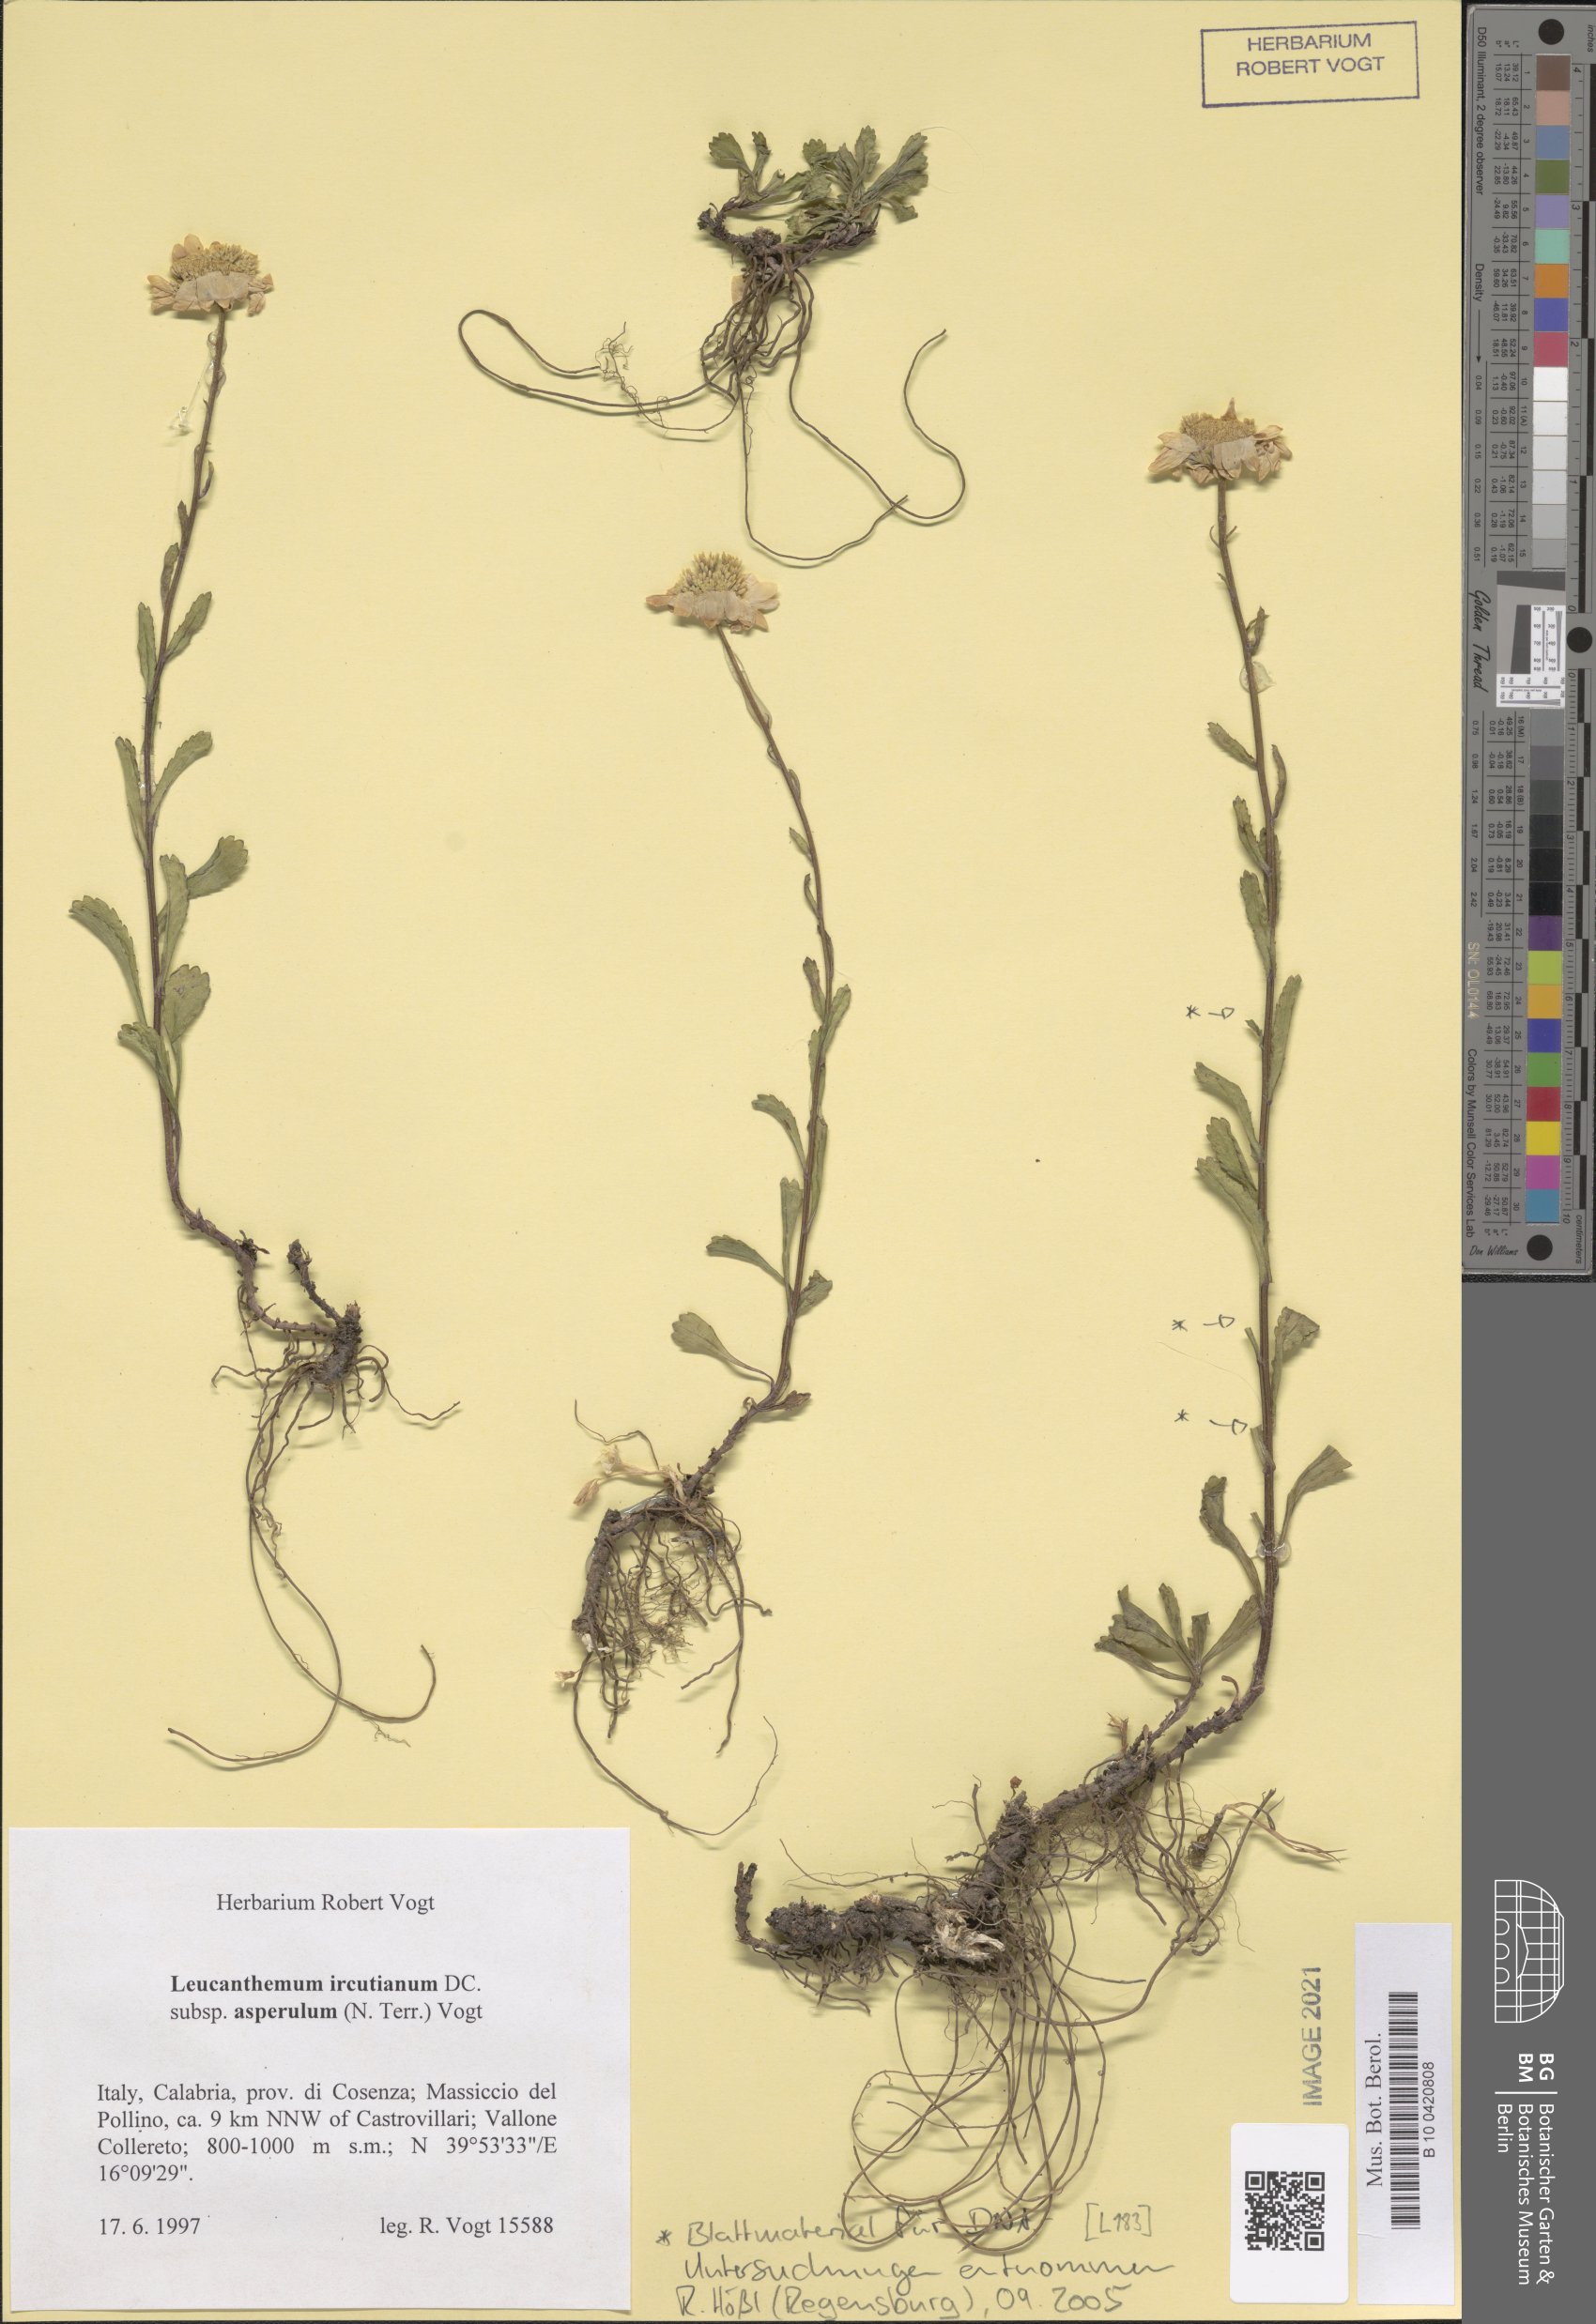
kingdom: Plantae
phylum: Tracheophyta
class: Magnoliopsida
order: Asterales
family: Asteraceae
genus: Leucanthemum
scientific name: Leucanthemum ircutianum
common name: Daisy
